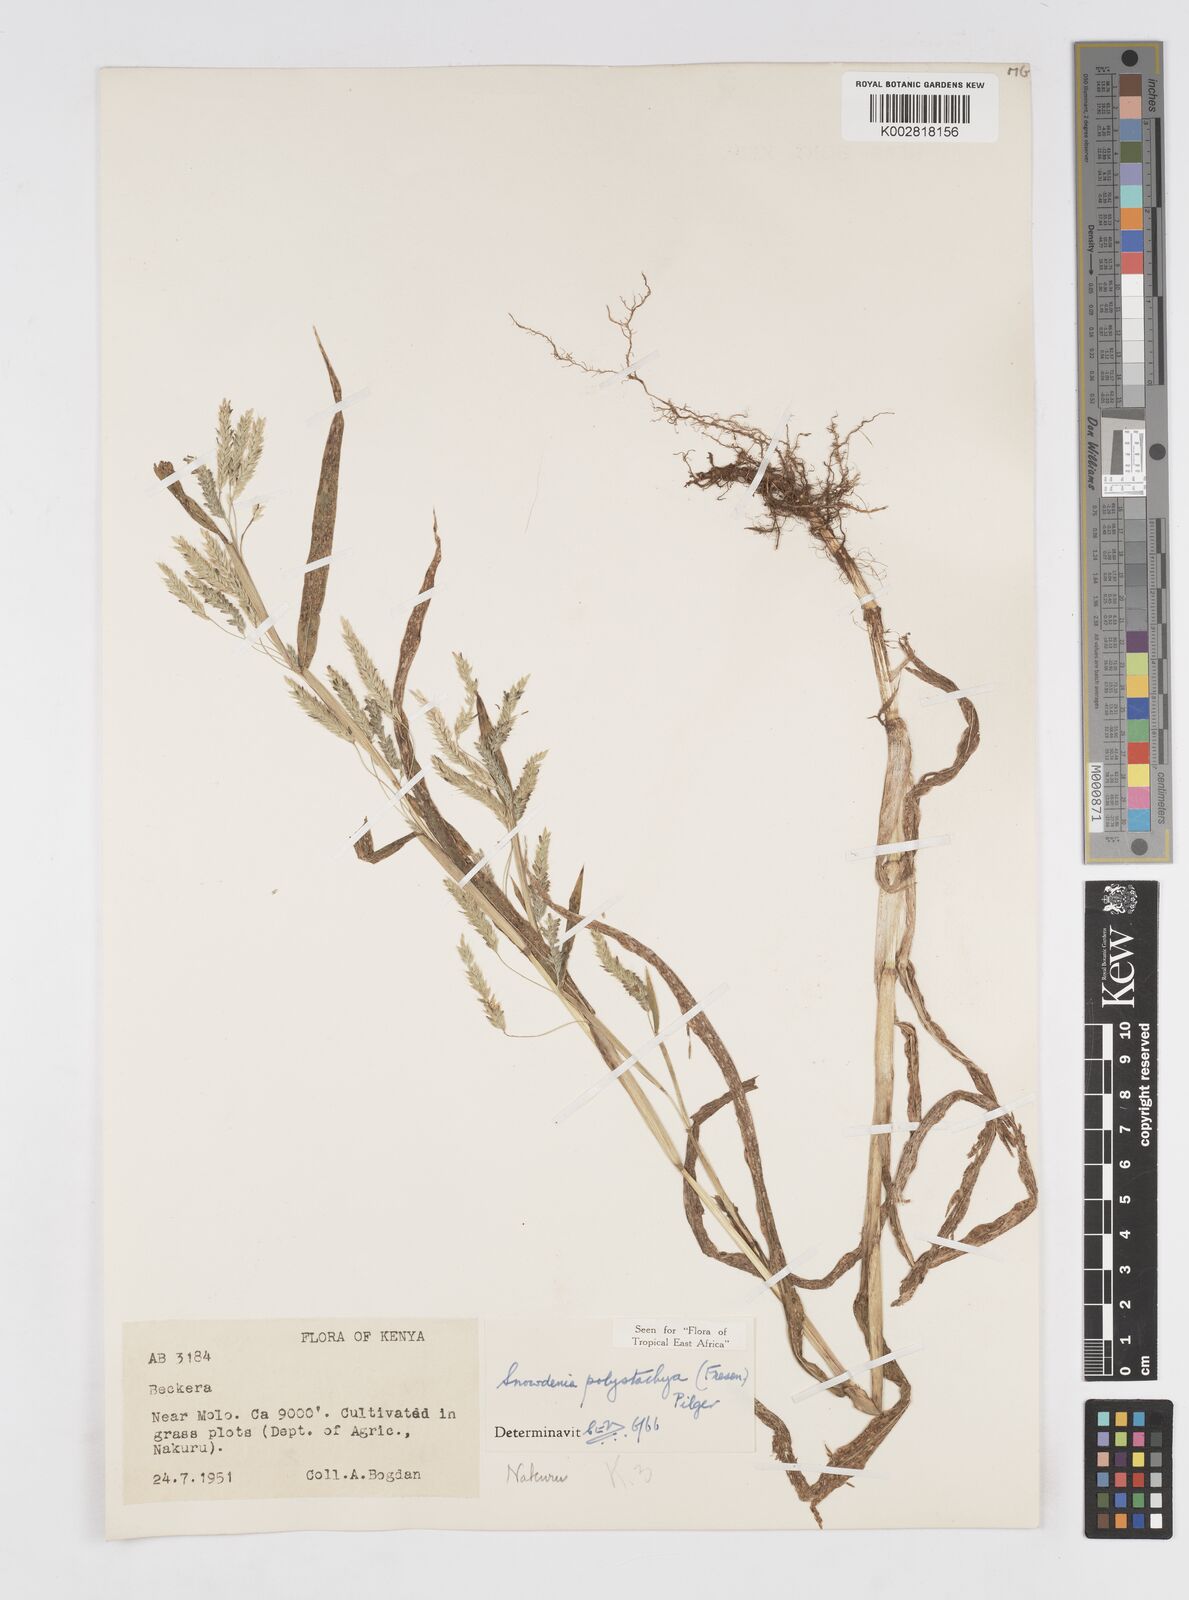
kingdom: Plantae
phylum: Tracheophyta
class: Liliopsida
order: Poales
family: Poaceae
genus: Snowdenia
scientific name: Snowdenia polystachya
